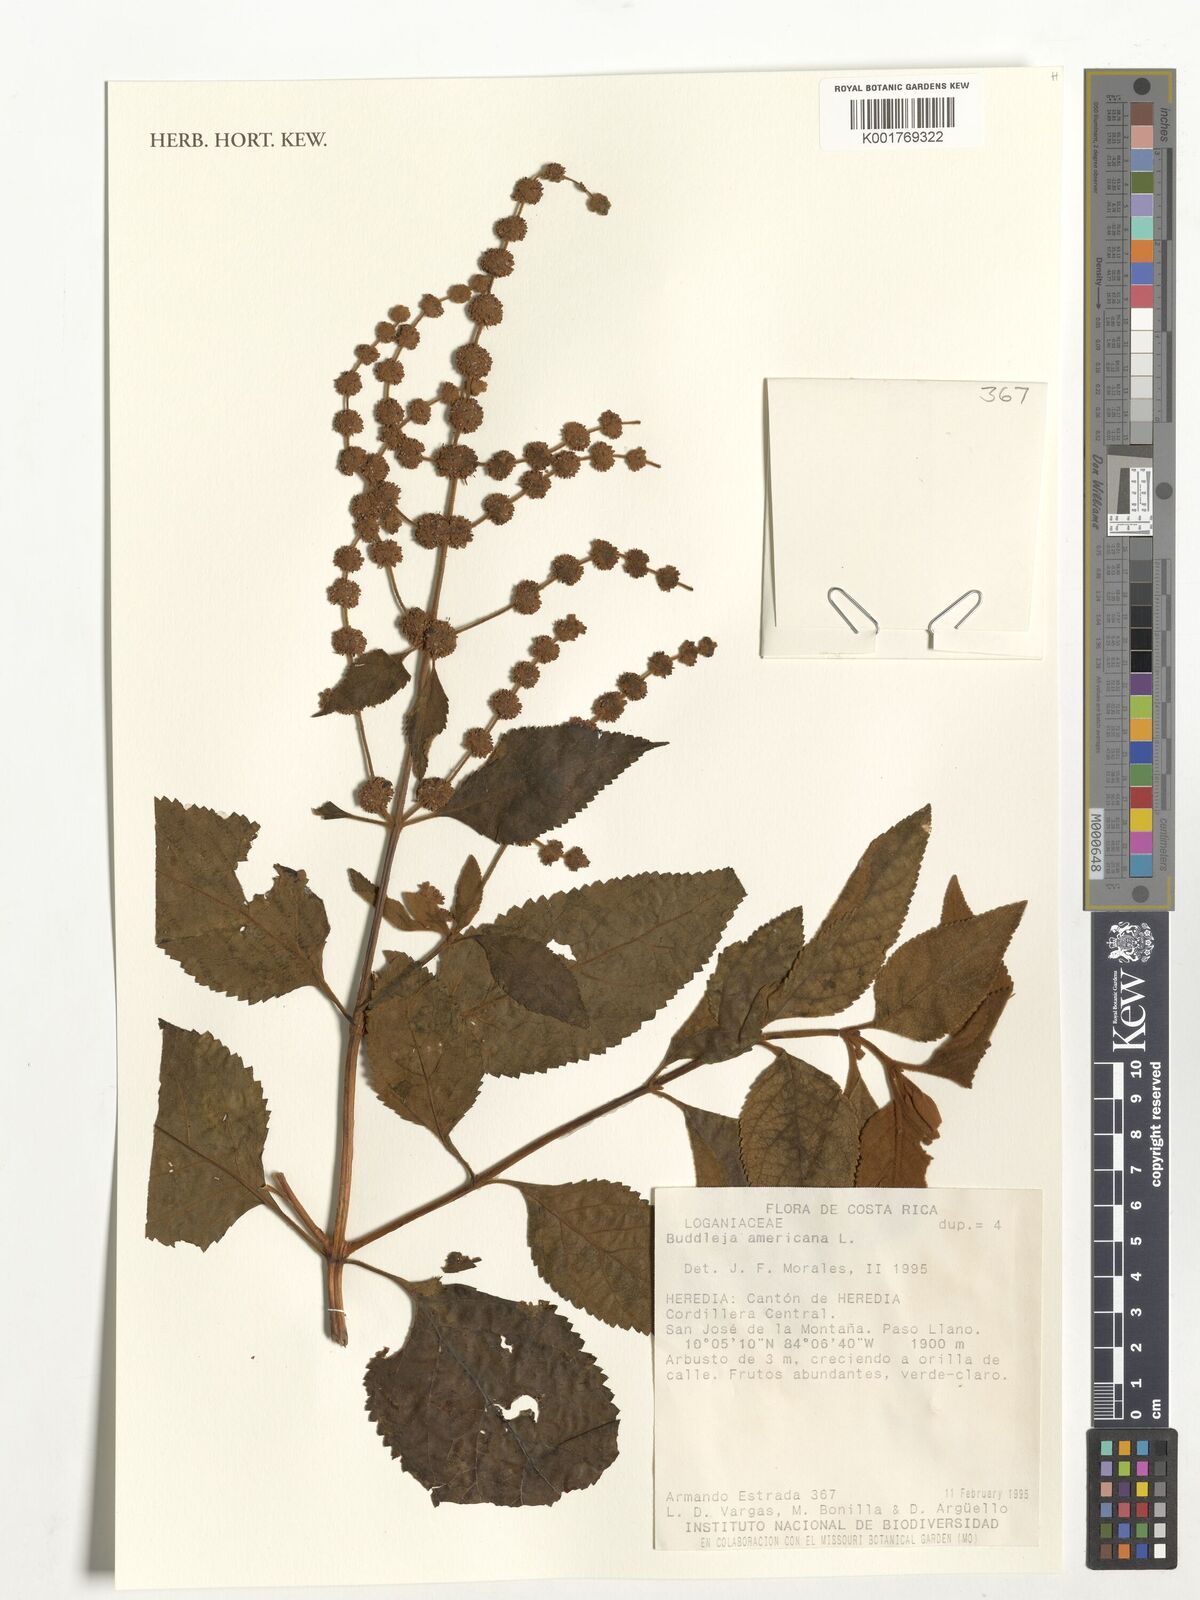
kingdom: Plantae
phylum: Tracheophyta
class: Magnoliopsida
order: Lamiales
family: Scrophulariaceae
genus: Buddleja
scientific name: Buddleja americana
